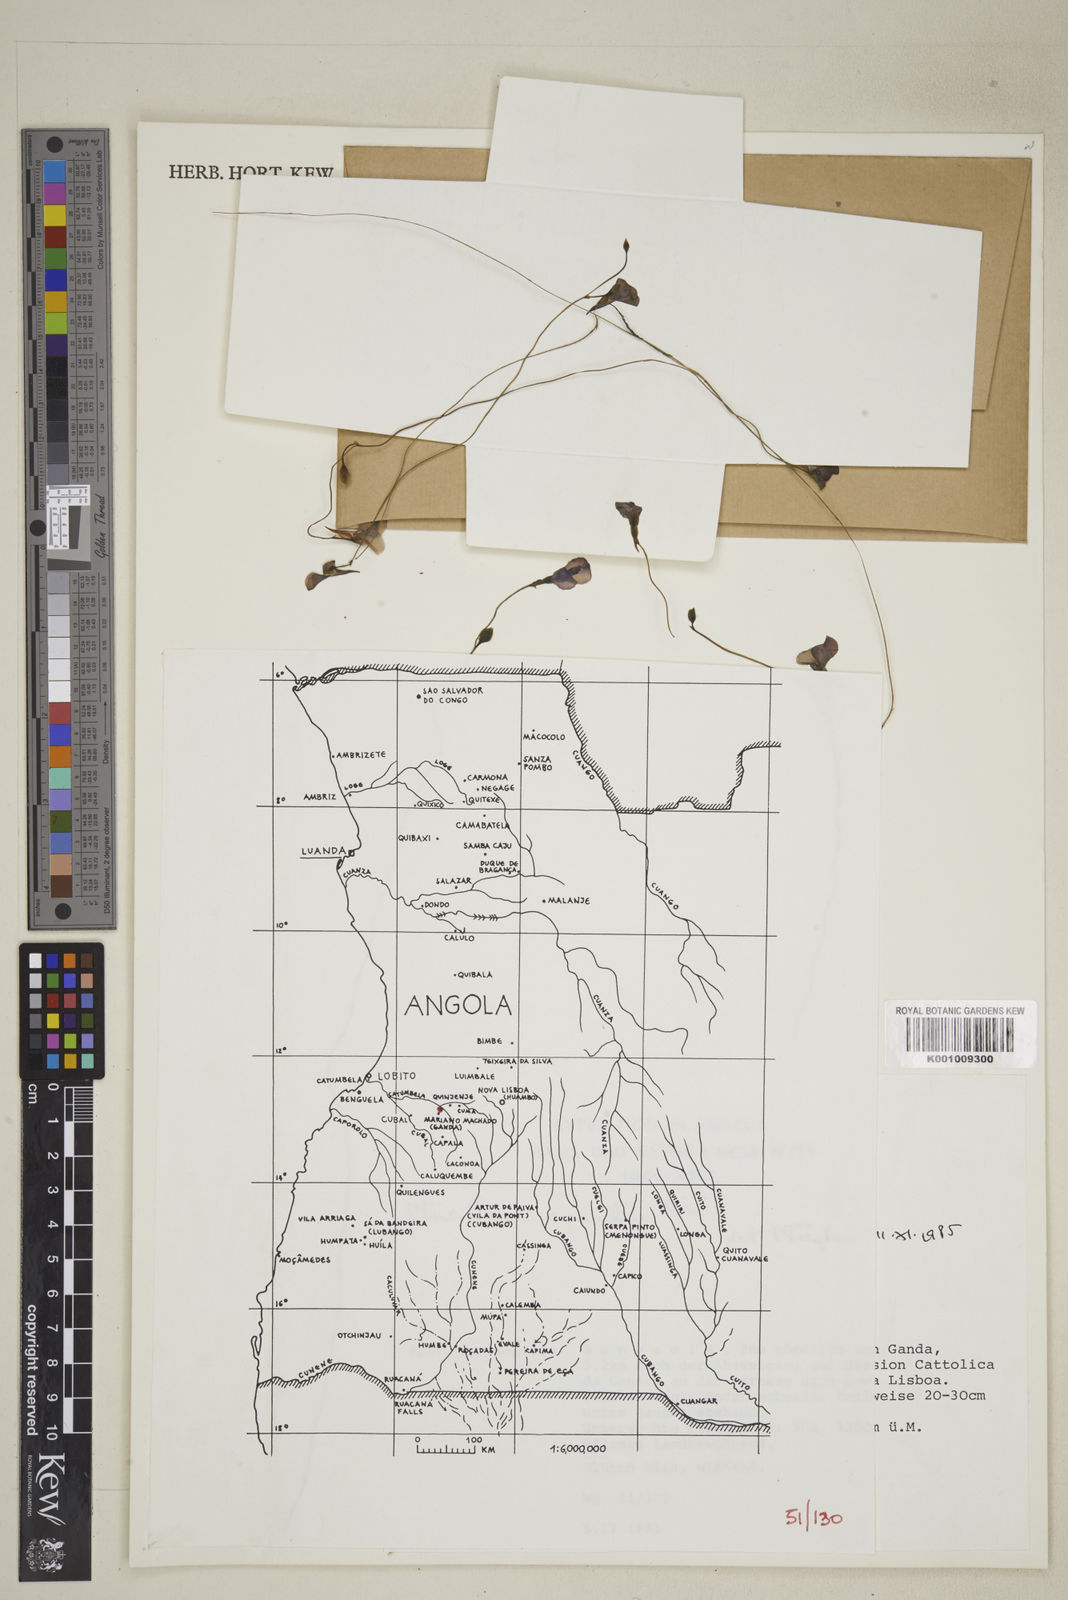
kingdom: Plantae
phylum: Tracheophyta
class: Magnoliopsida
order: Lamiales
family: Lentibulariaceae
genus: Utricularia
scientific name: Utricularia spiralis
